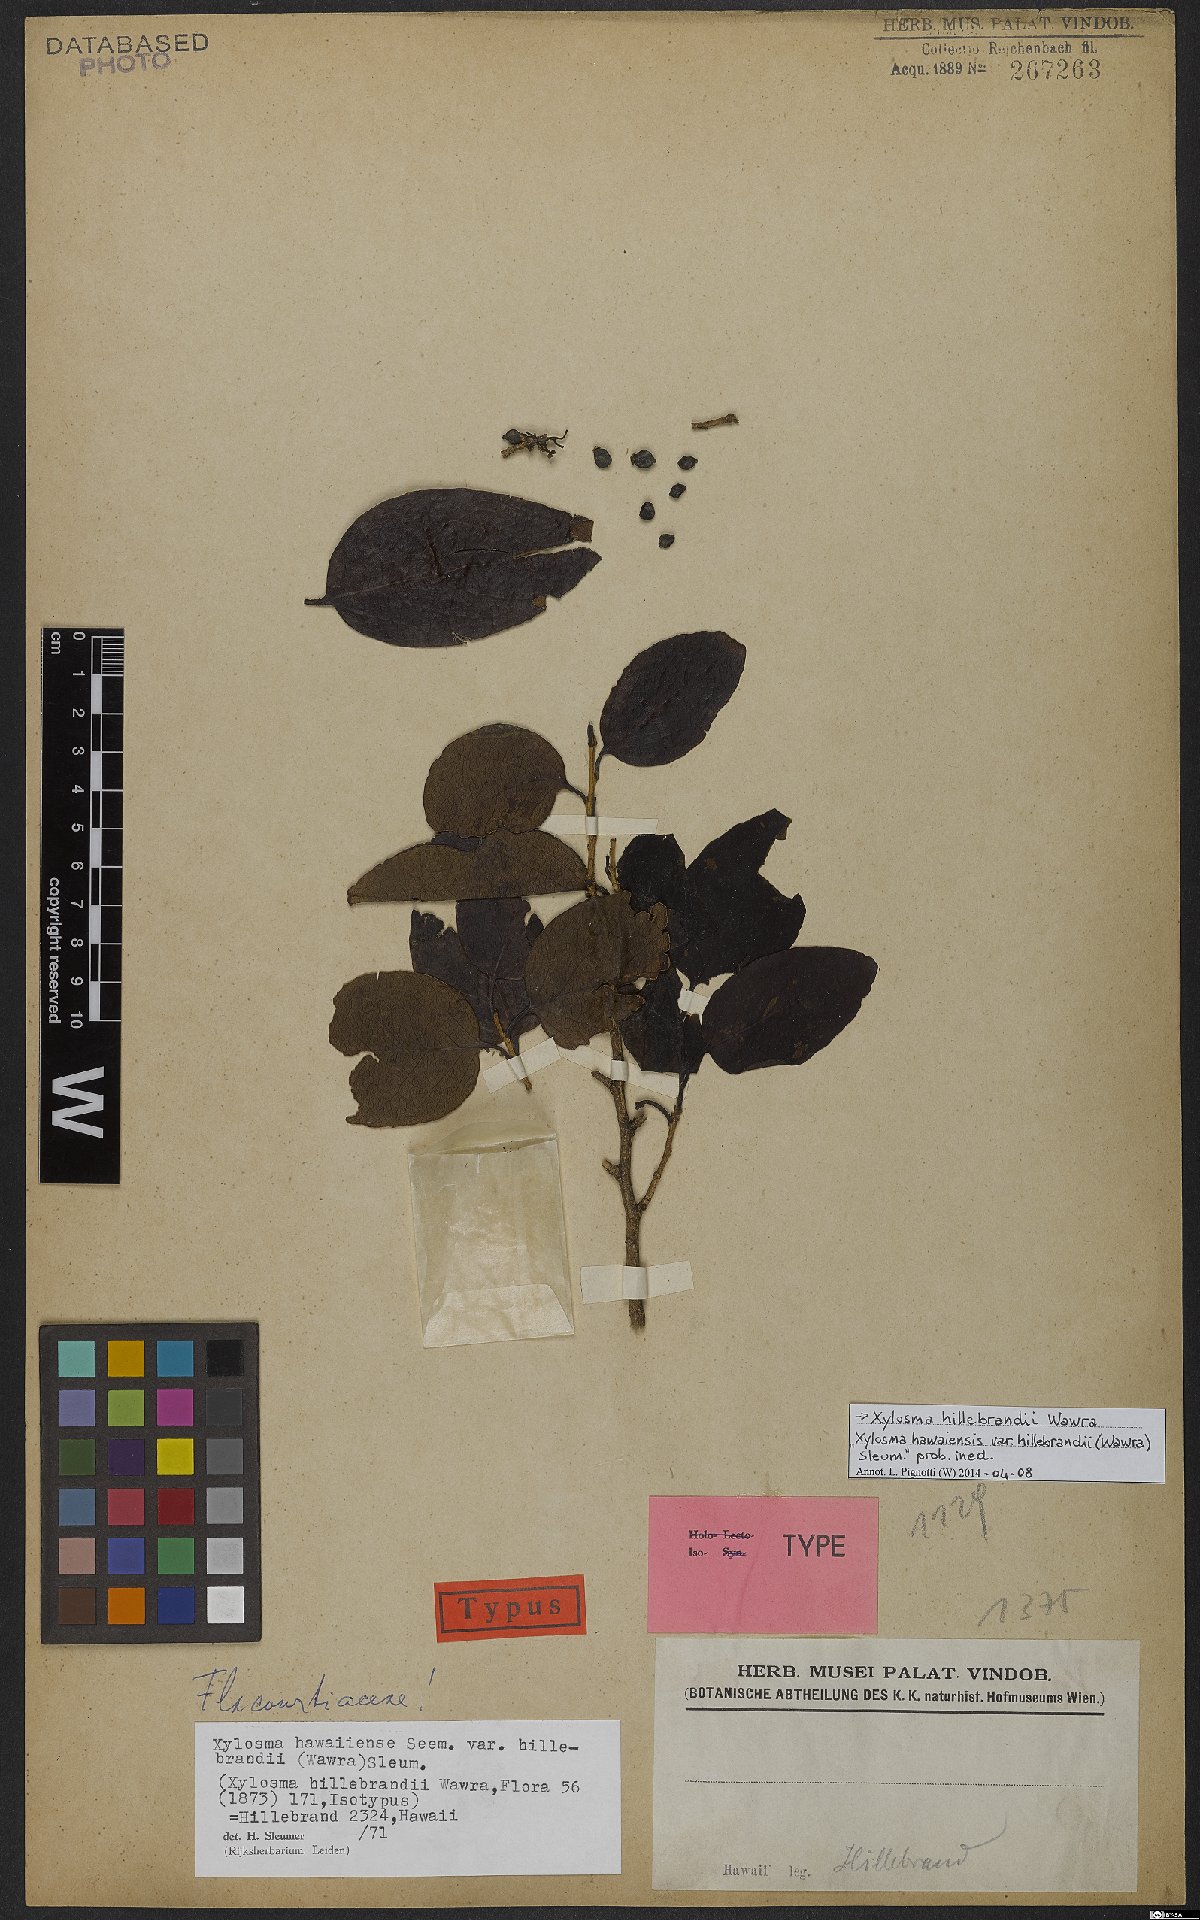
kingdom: Plantae
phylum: Tracheophyta
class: Magnoliopsida
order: Malpighiales
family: Salicaceae
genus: Xylosma
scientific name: Xylosma hawaiense
